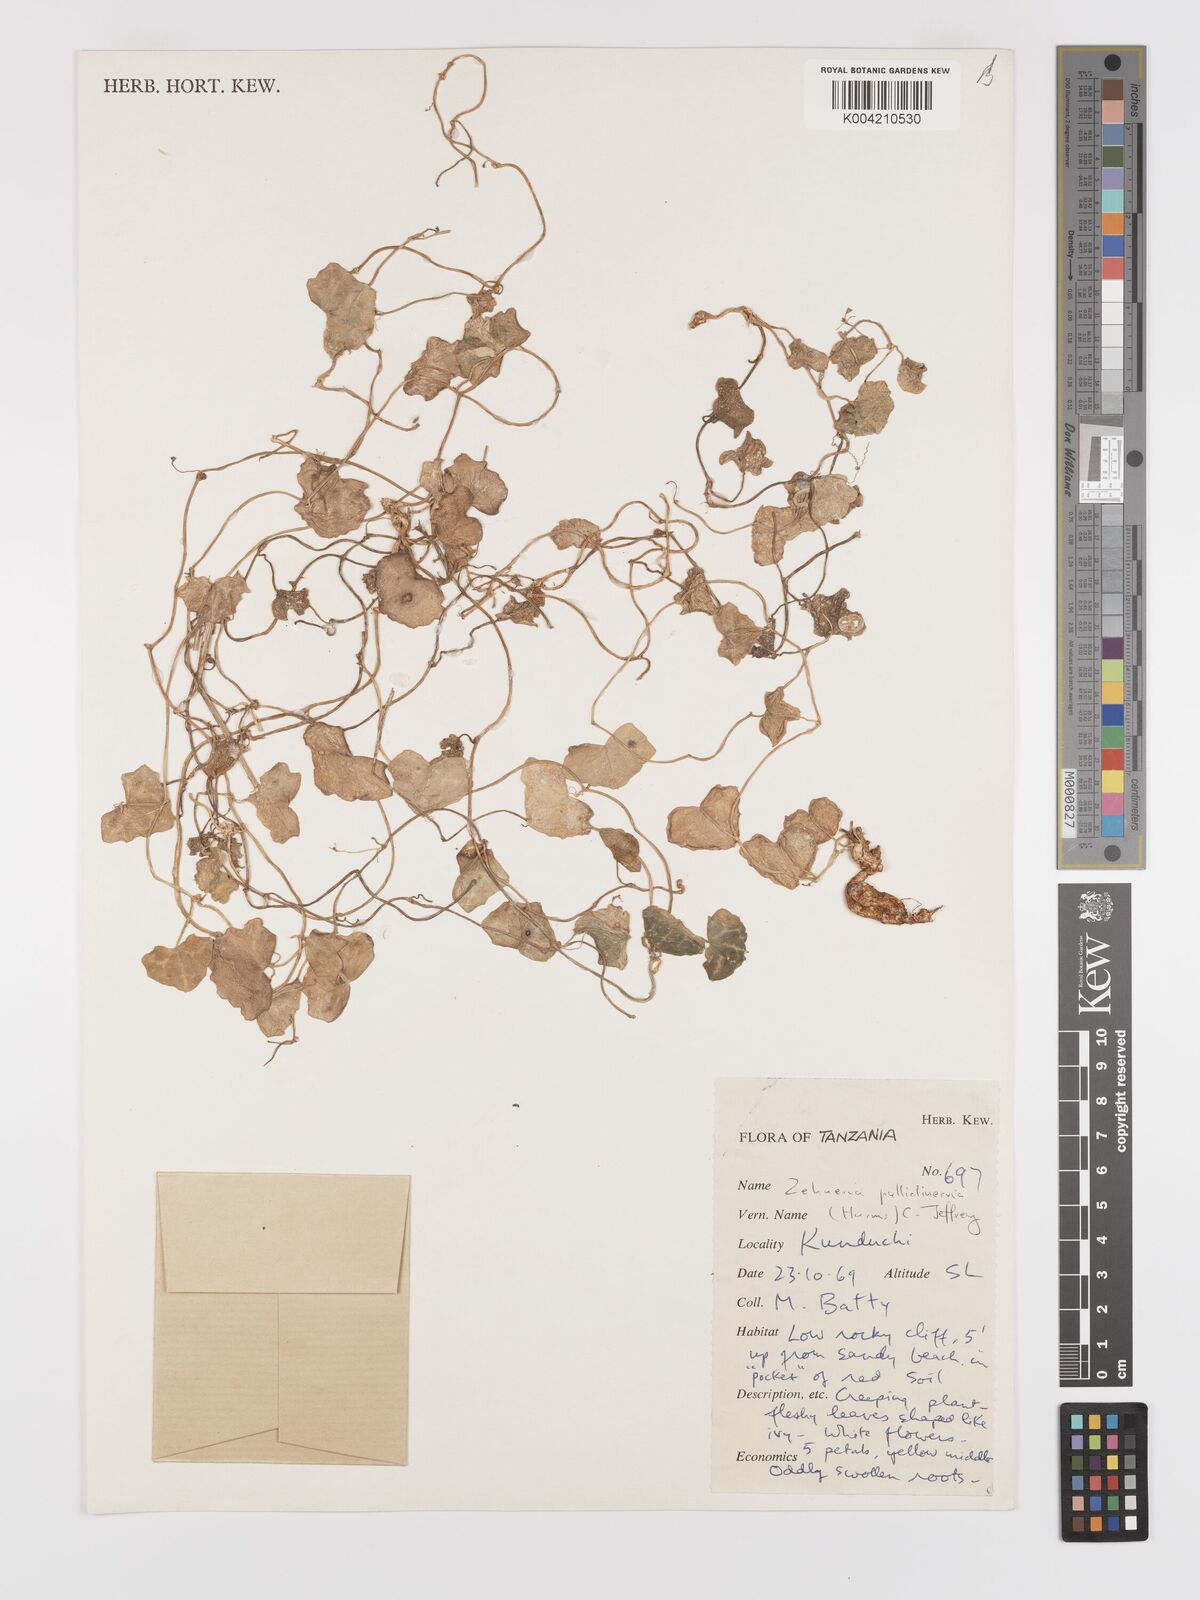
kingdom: Plantae
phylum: Tracheophyta
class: Magnoliopsida
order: Cucurbitales
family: Cucurbitaceae
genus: Zehneria
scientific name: Zehneria pallidinervia
